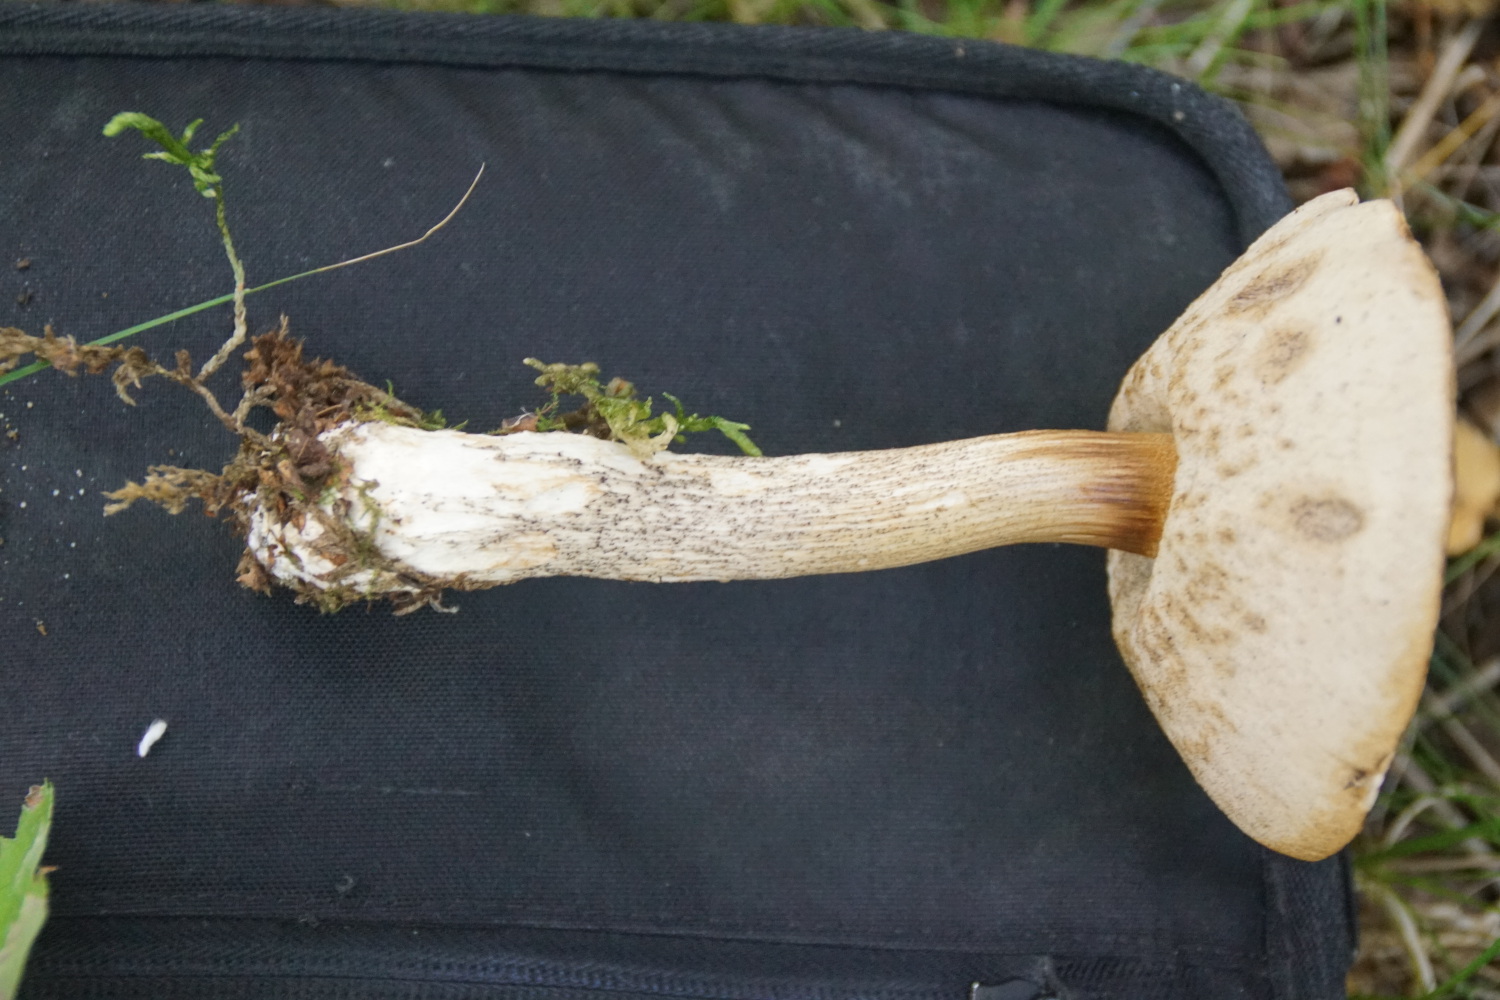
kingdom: Fungi
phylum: Basidiomycota
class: Agaricomycetes
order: Boletales
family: Boletaceae
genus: Leccinum
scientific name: Leccinum scabrum
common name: brun skælrørhat
